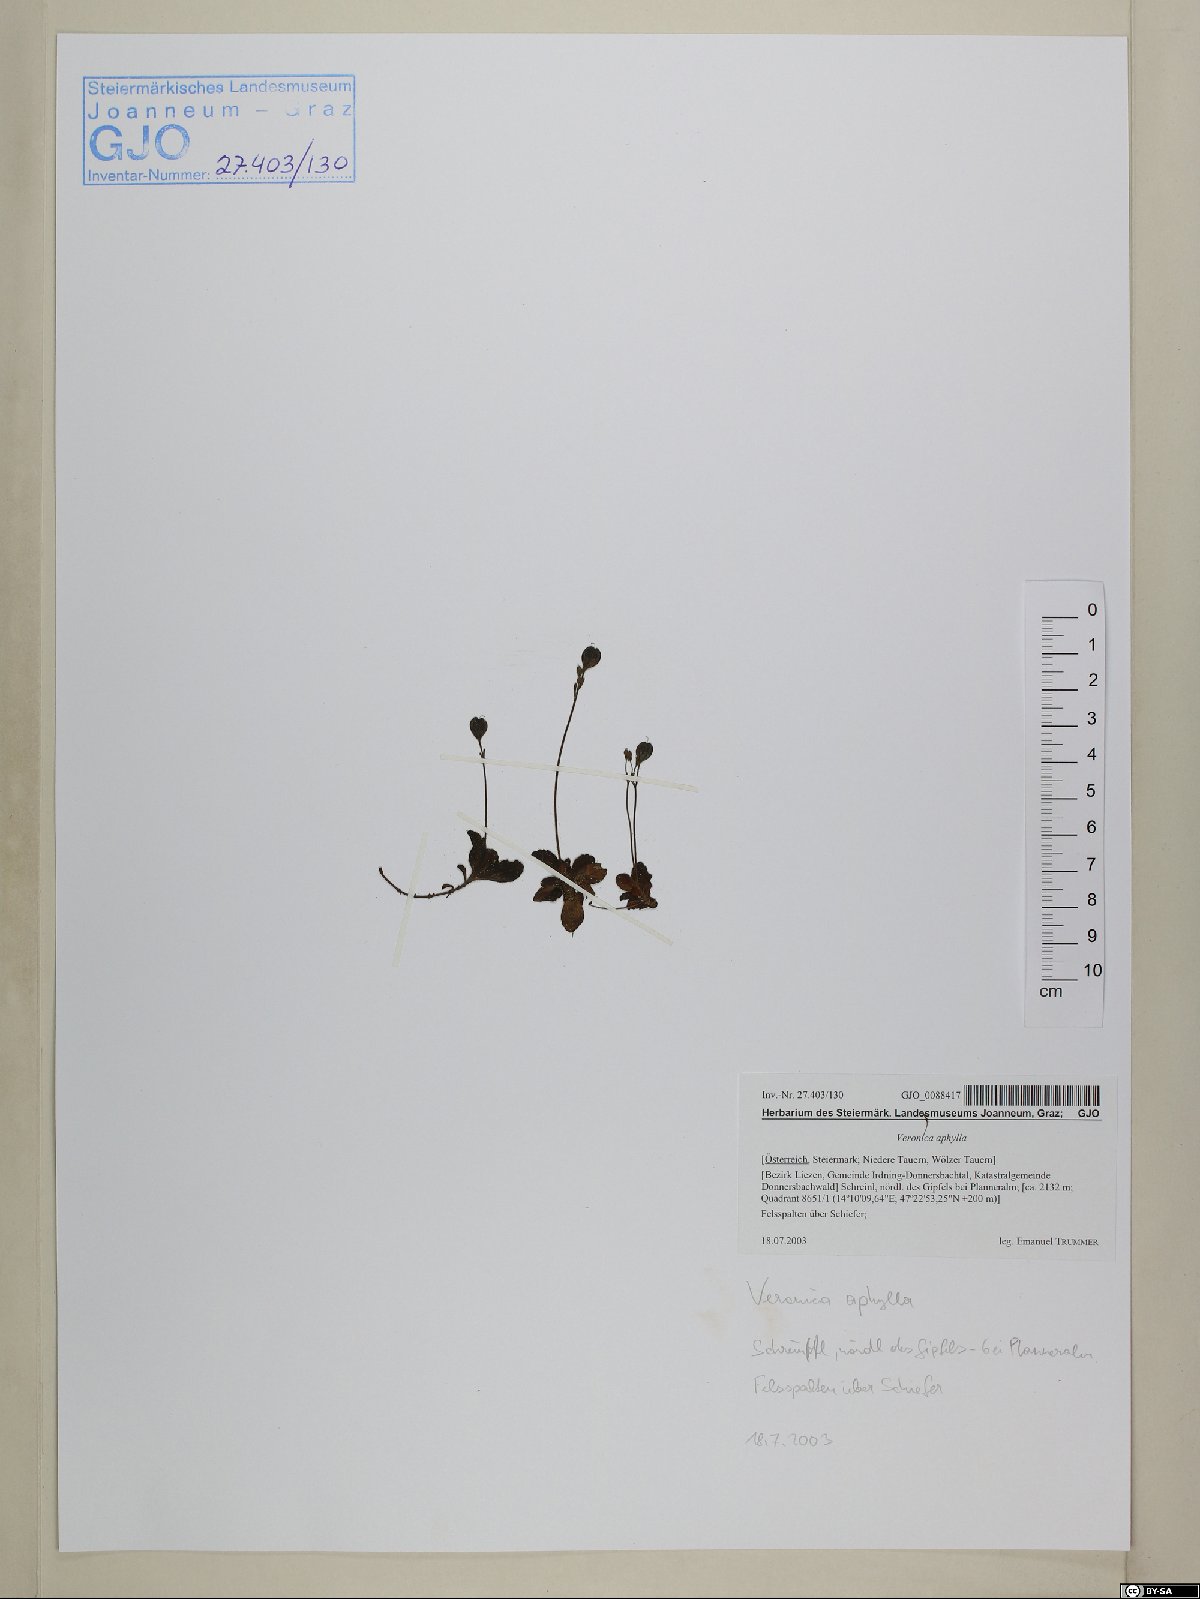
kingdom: Plantae
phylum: Tracheophyta
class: Magnoliopsida
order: Lamiales
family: Plantaginaceae
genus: Veronica
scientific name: Veronica aphylla
